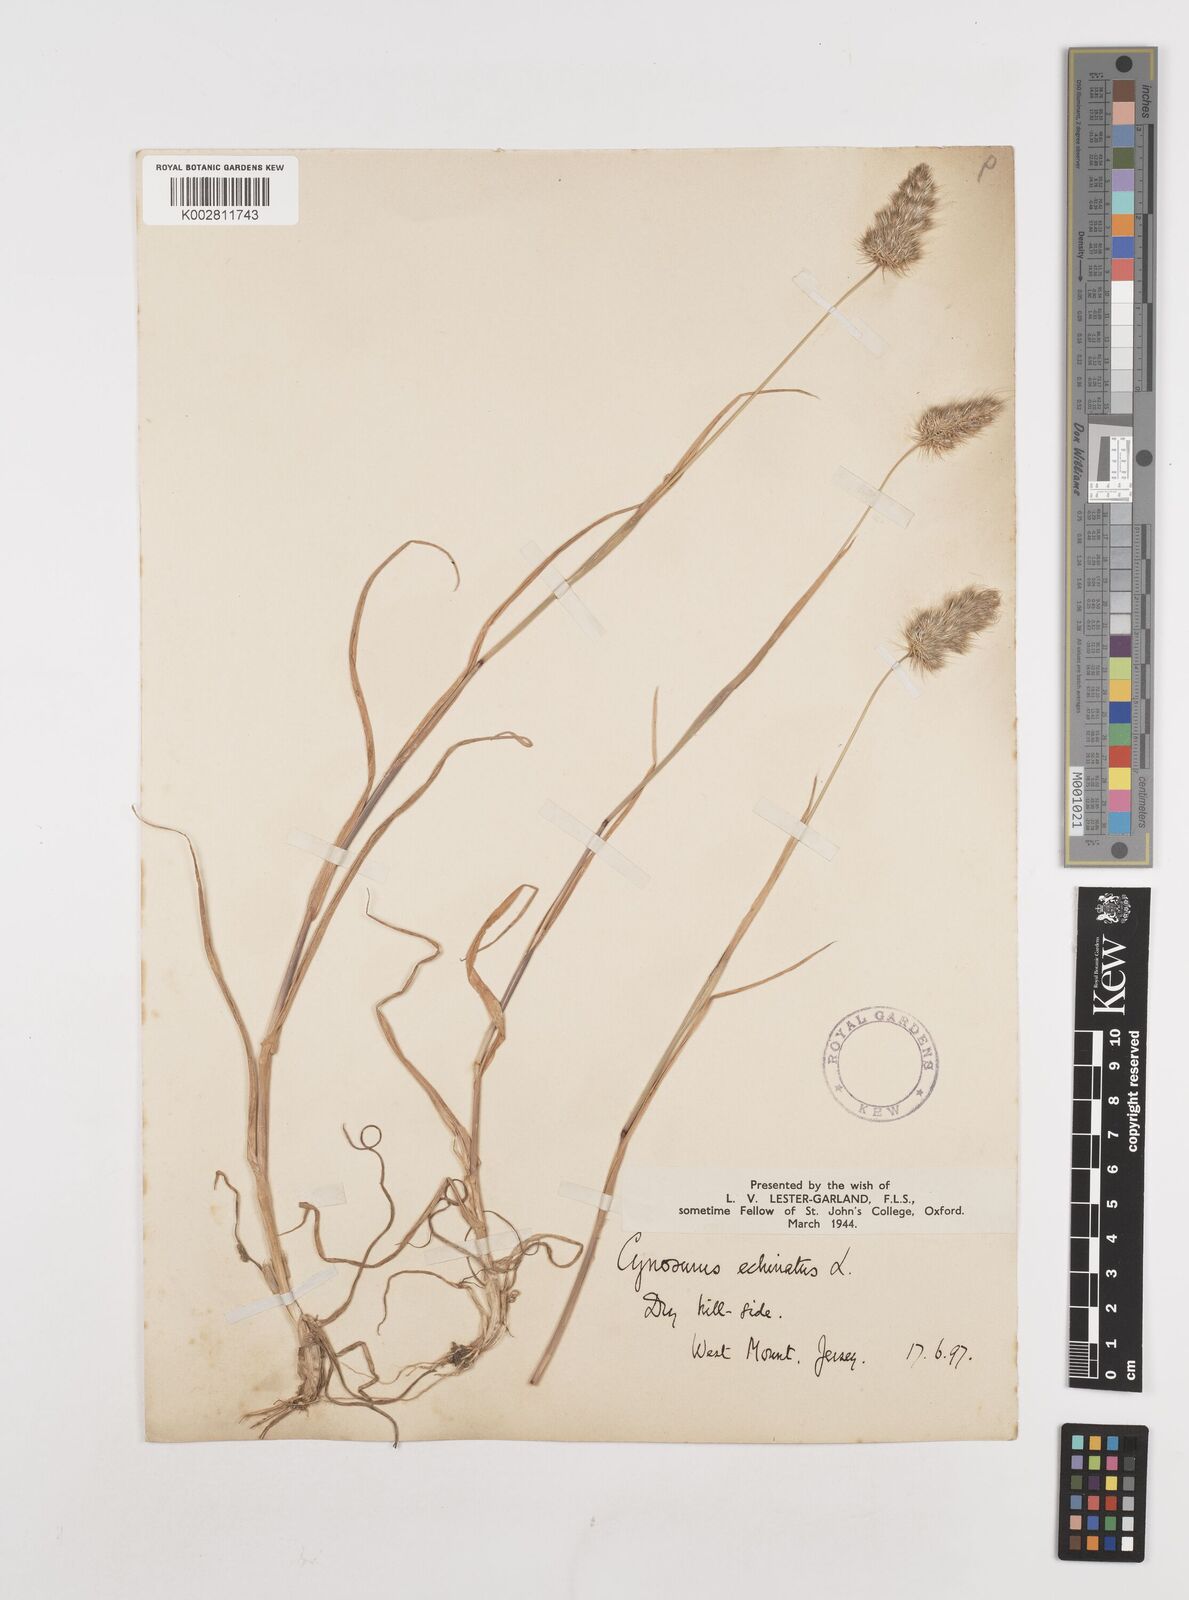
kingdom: Plantae
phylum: Tracheophyta
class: Liliopsida
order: Poales
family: Poaceae
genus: Cynosurus
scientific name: Cynosurus echinatus
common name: Rough dog's-tail
